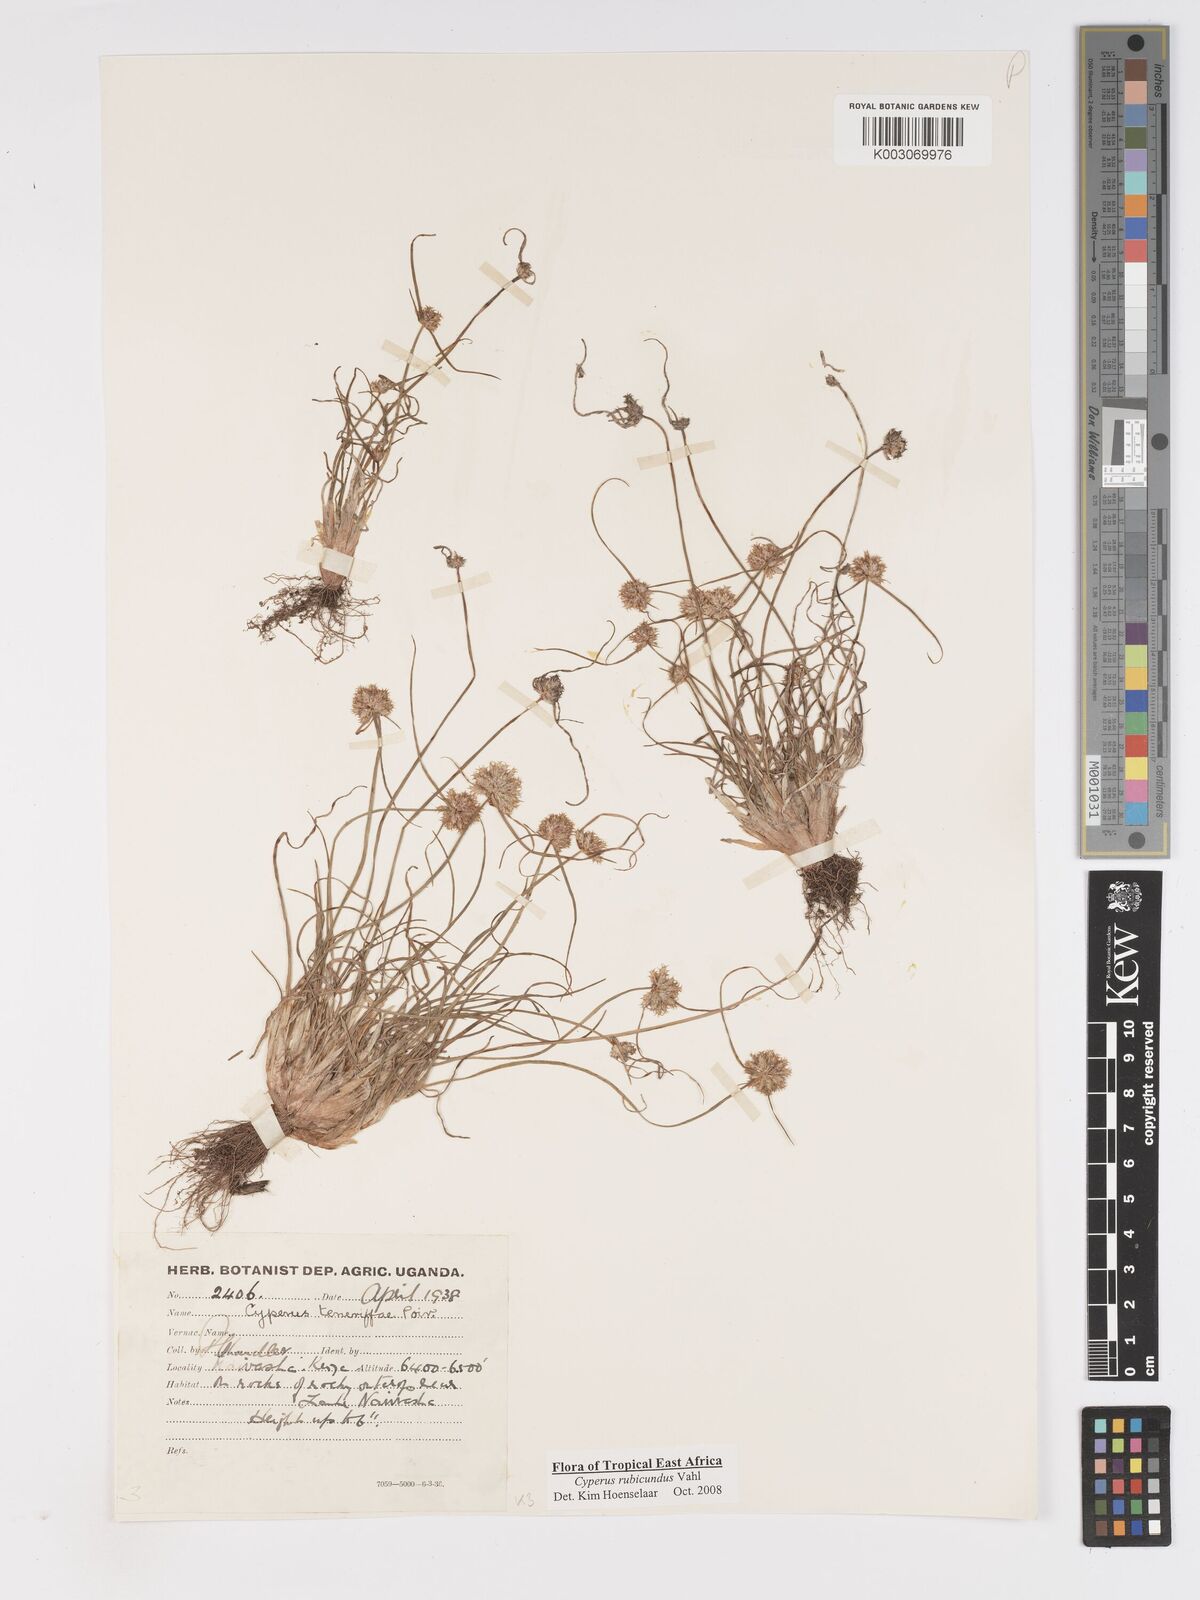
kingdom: Plantae
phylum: Tracheophyta
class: Liliopsida
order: Poales
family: Cyperaceae
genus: Cyperus
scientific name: Cyperus rubicundus
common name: Coco-grass
